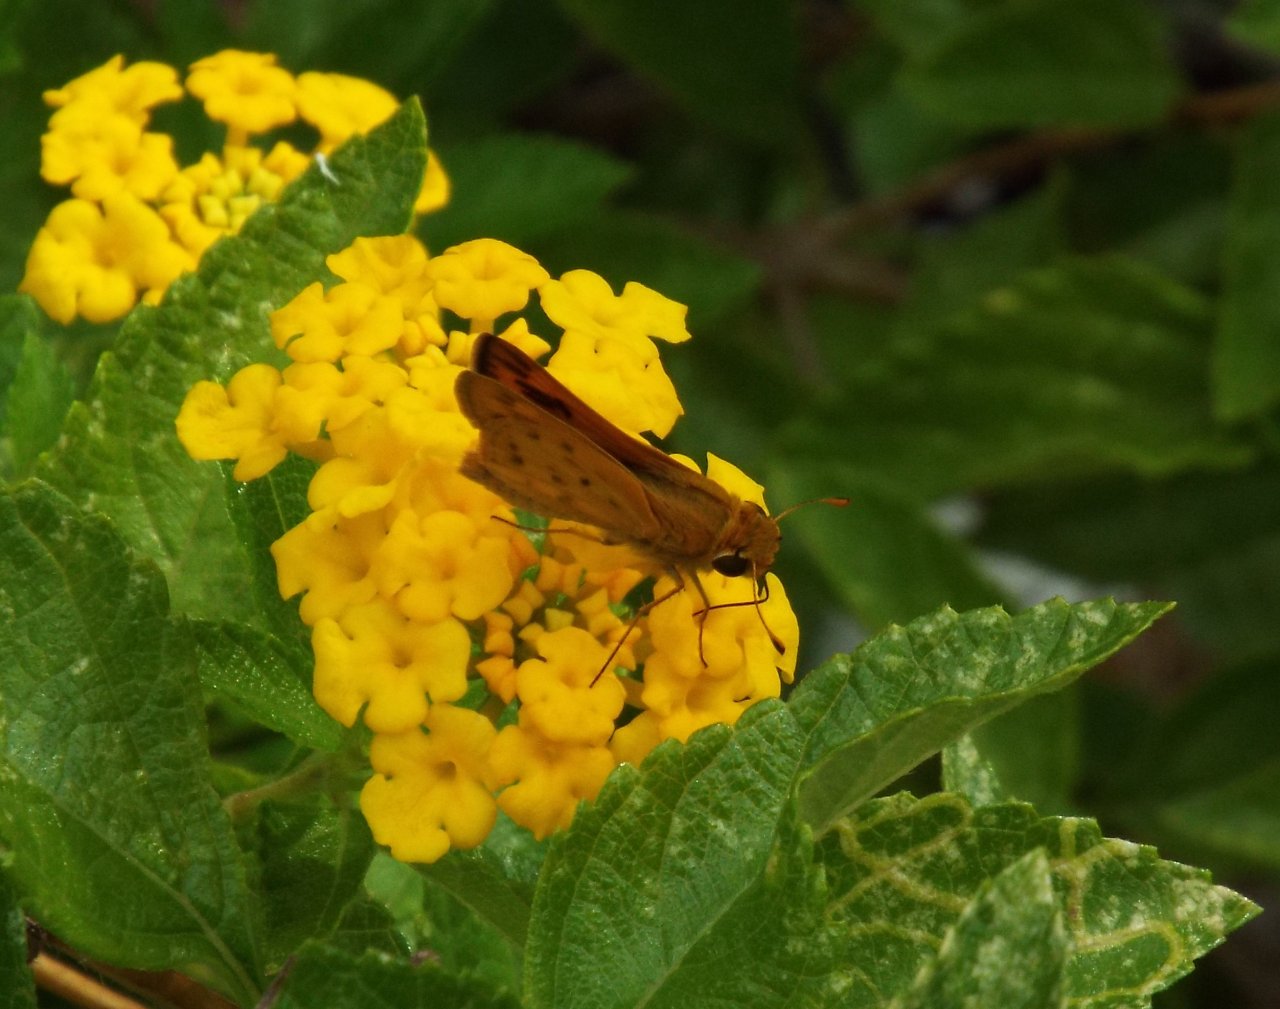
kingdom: Animalia
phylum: Arthropoda
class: Insecta
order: Lepidoptera
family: Hesperiidae
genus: Hylephila
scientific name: Hylephila phyleus
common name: Fiery Skipper
